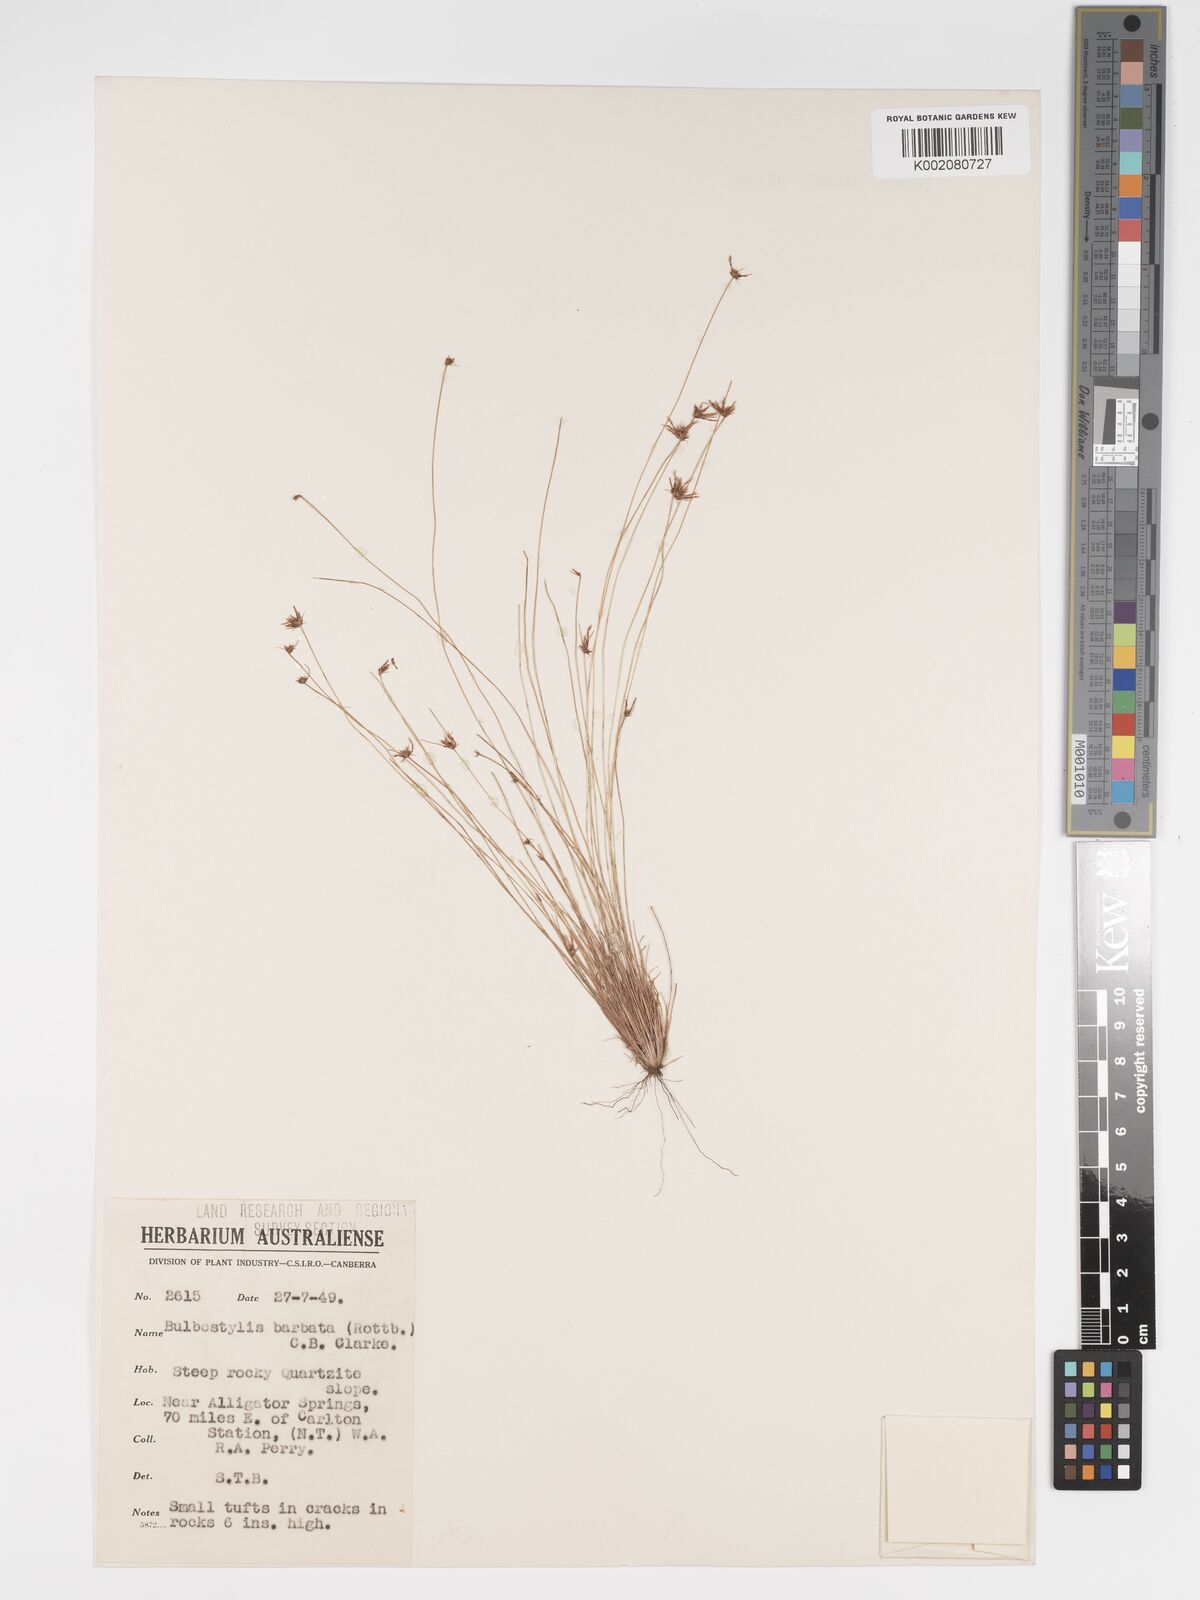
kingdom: Plantae
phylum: Tracheophyta
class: Liliopsida
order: Poales
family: Cyperaceae
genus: Bulbostylis
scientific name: Bulbostylis barbata
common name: Watergrass
